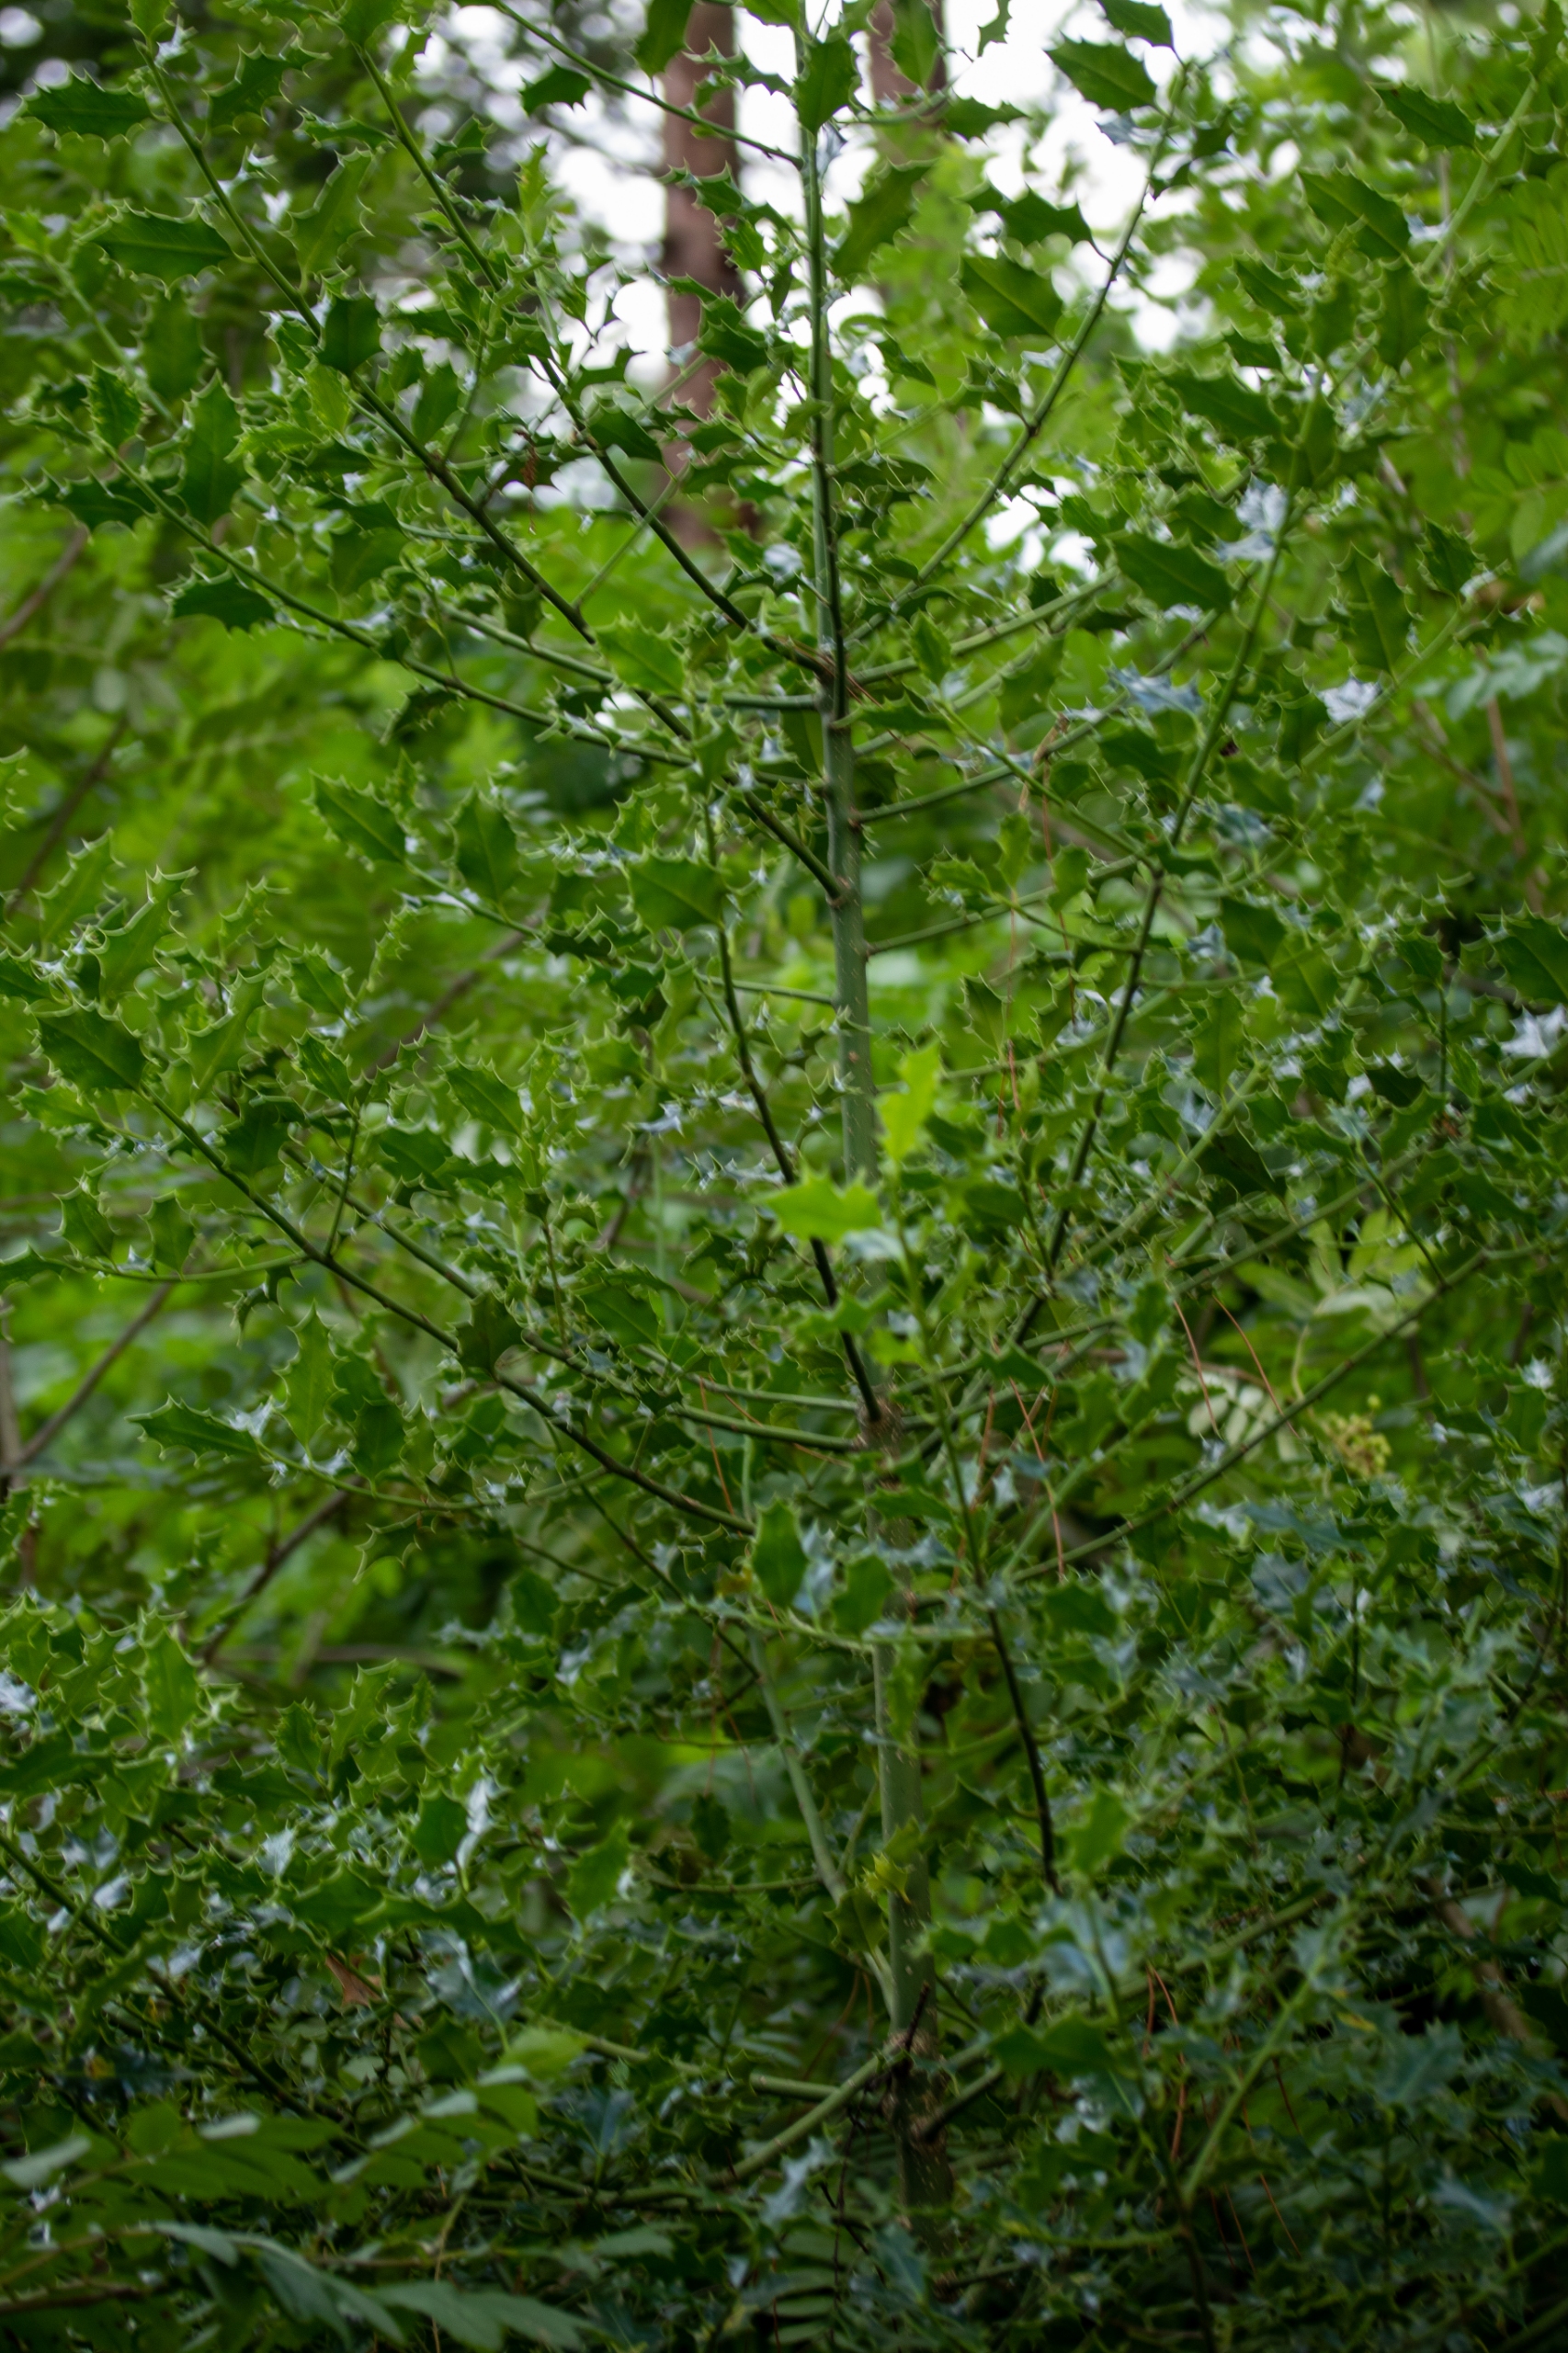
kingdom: Plantae
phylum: Tracheophyta
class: Magnoliopsida
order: Aquifoliales
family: Aquifoliaceae
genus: Ilex
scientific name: Ilex aquifolium
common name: Kristtorn
